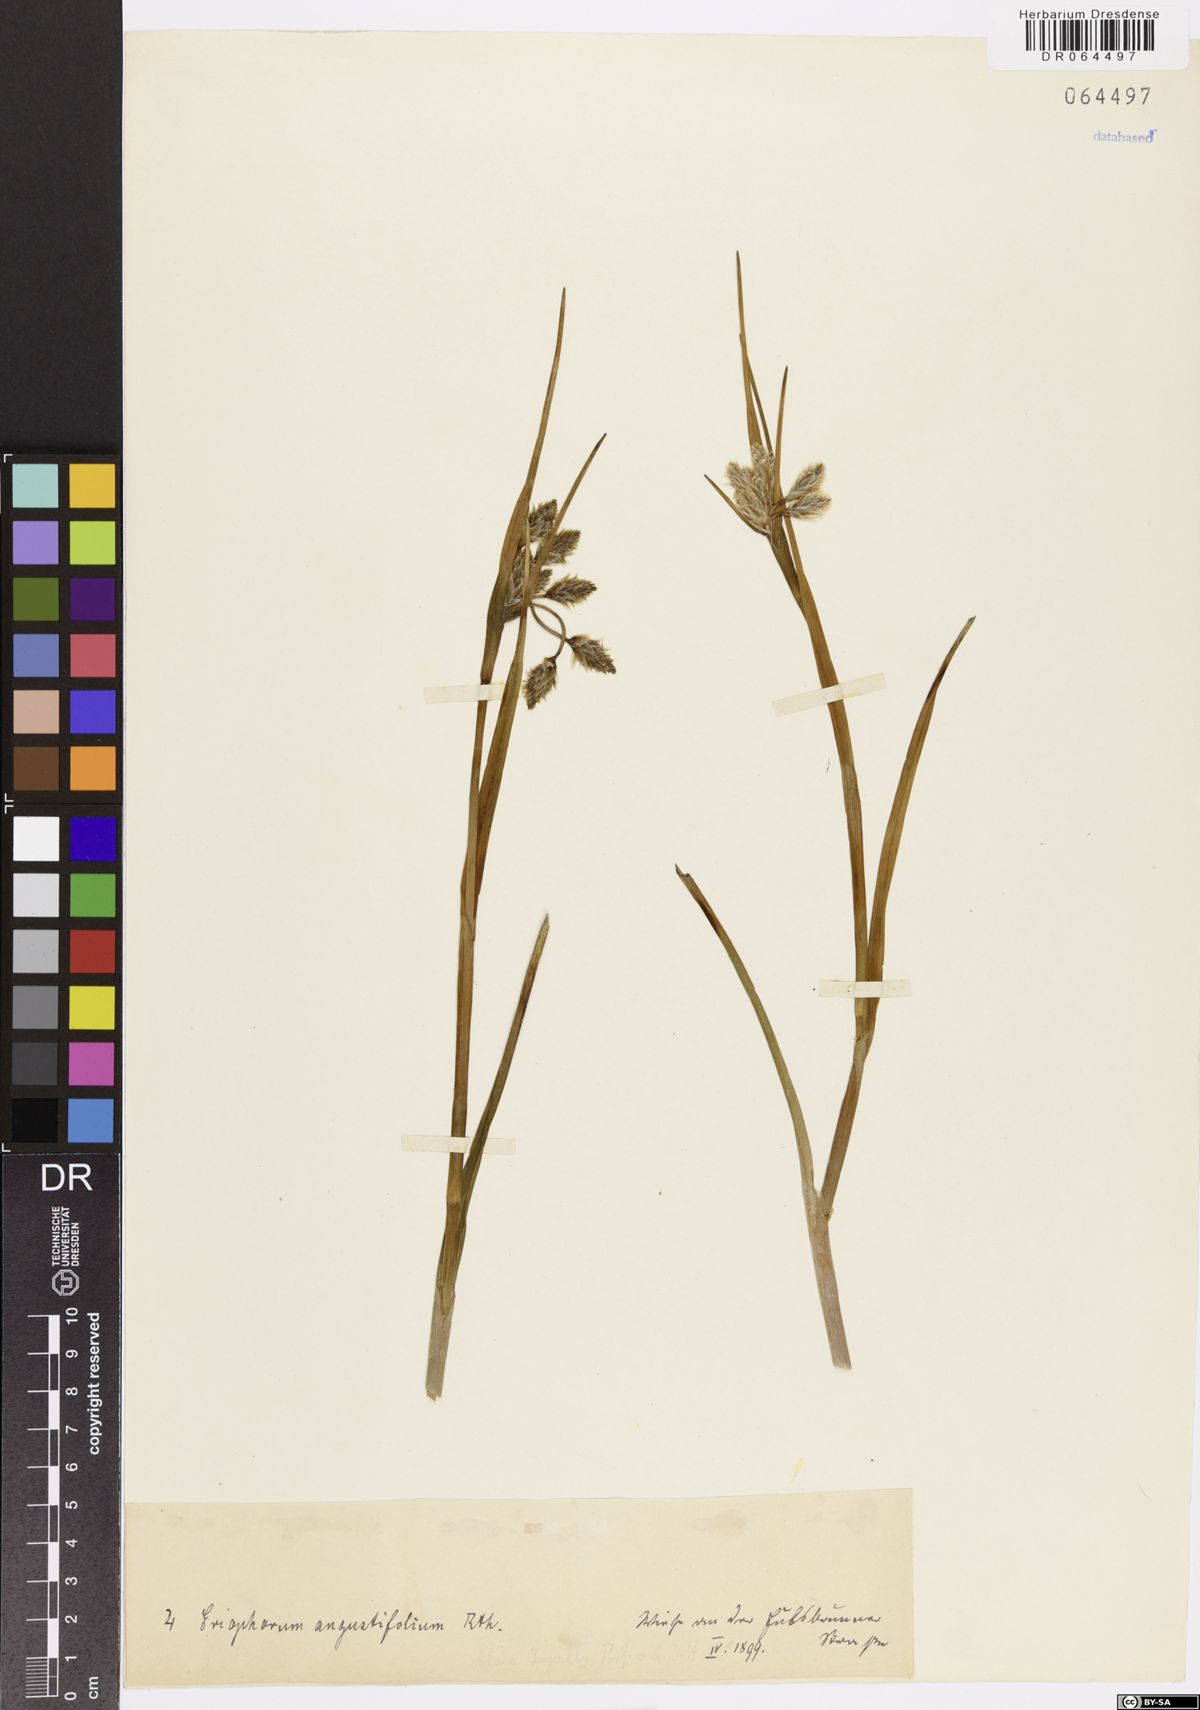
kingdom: Plantae
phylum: Tracheophyta
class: Liliopsida
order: Poales
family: Cyperaceae
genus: Eriophorum
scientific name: Eriophorum angustifolium
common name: Common cottongrass
